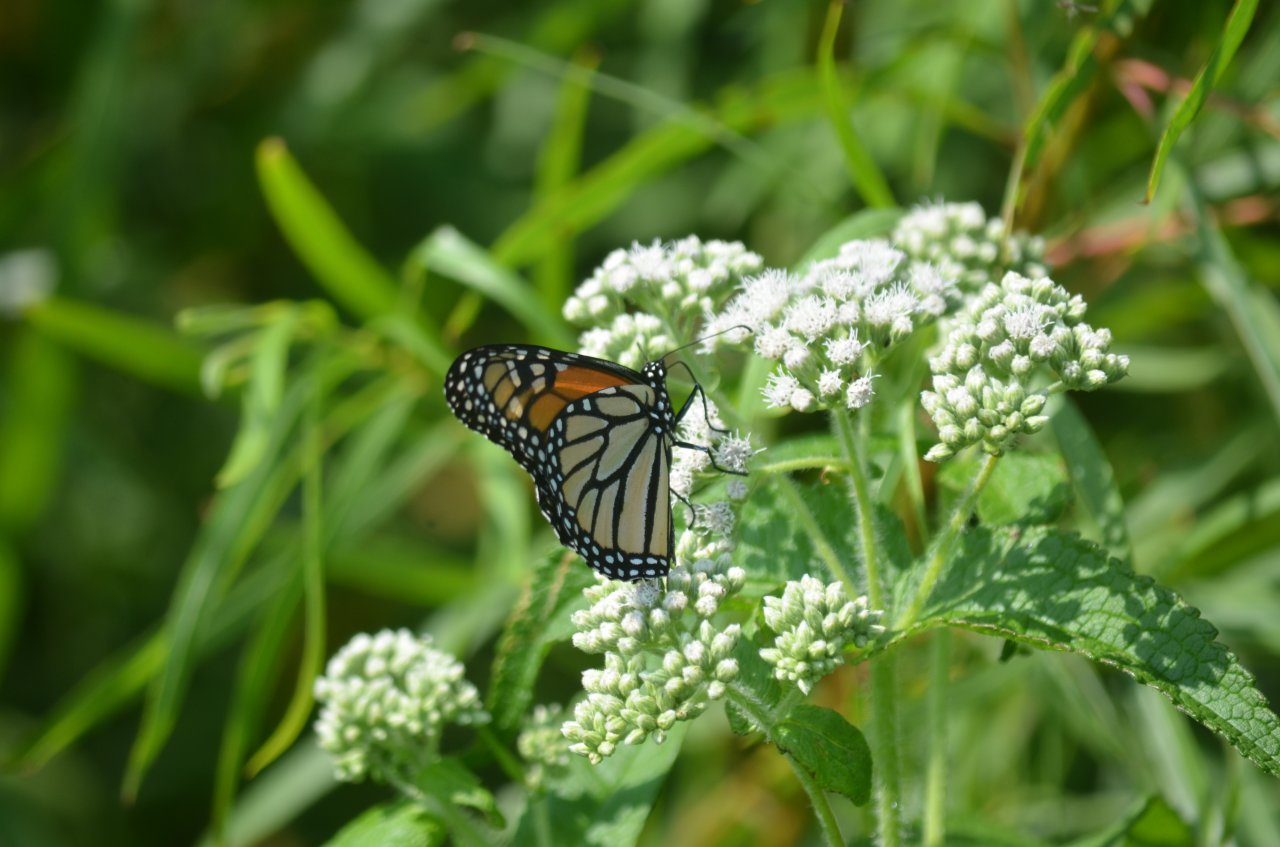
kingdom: Animalia
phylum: Arthropoda
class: Insecta
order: Lepidoptera
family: Nymphalidae
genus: Danaus
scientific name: Danaus plexippus
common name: Monarch
